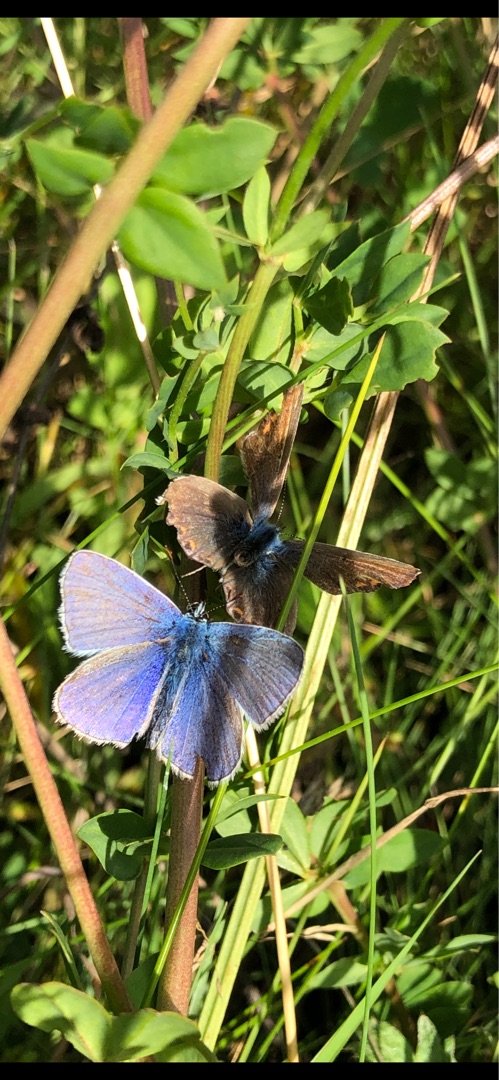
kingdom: Animalia
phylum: Arthropoda
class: Insecta
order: Lepidoptera
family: Lycaenidae
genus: Polyommatus
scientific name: Polyommatus icarus
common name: Almindelig blåfugl
